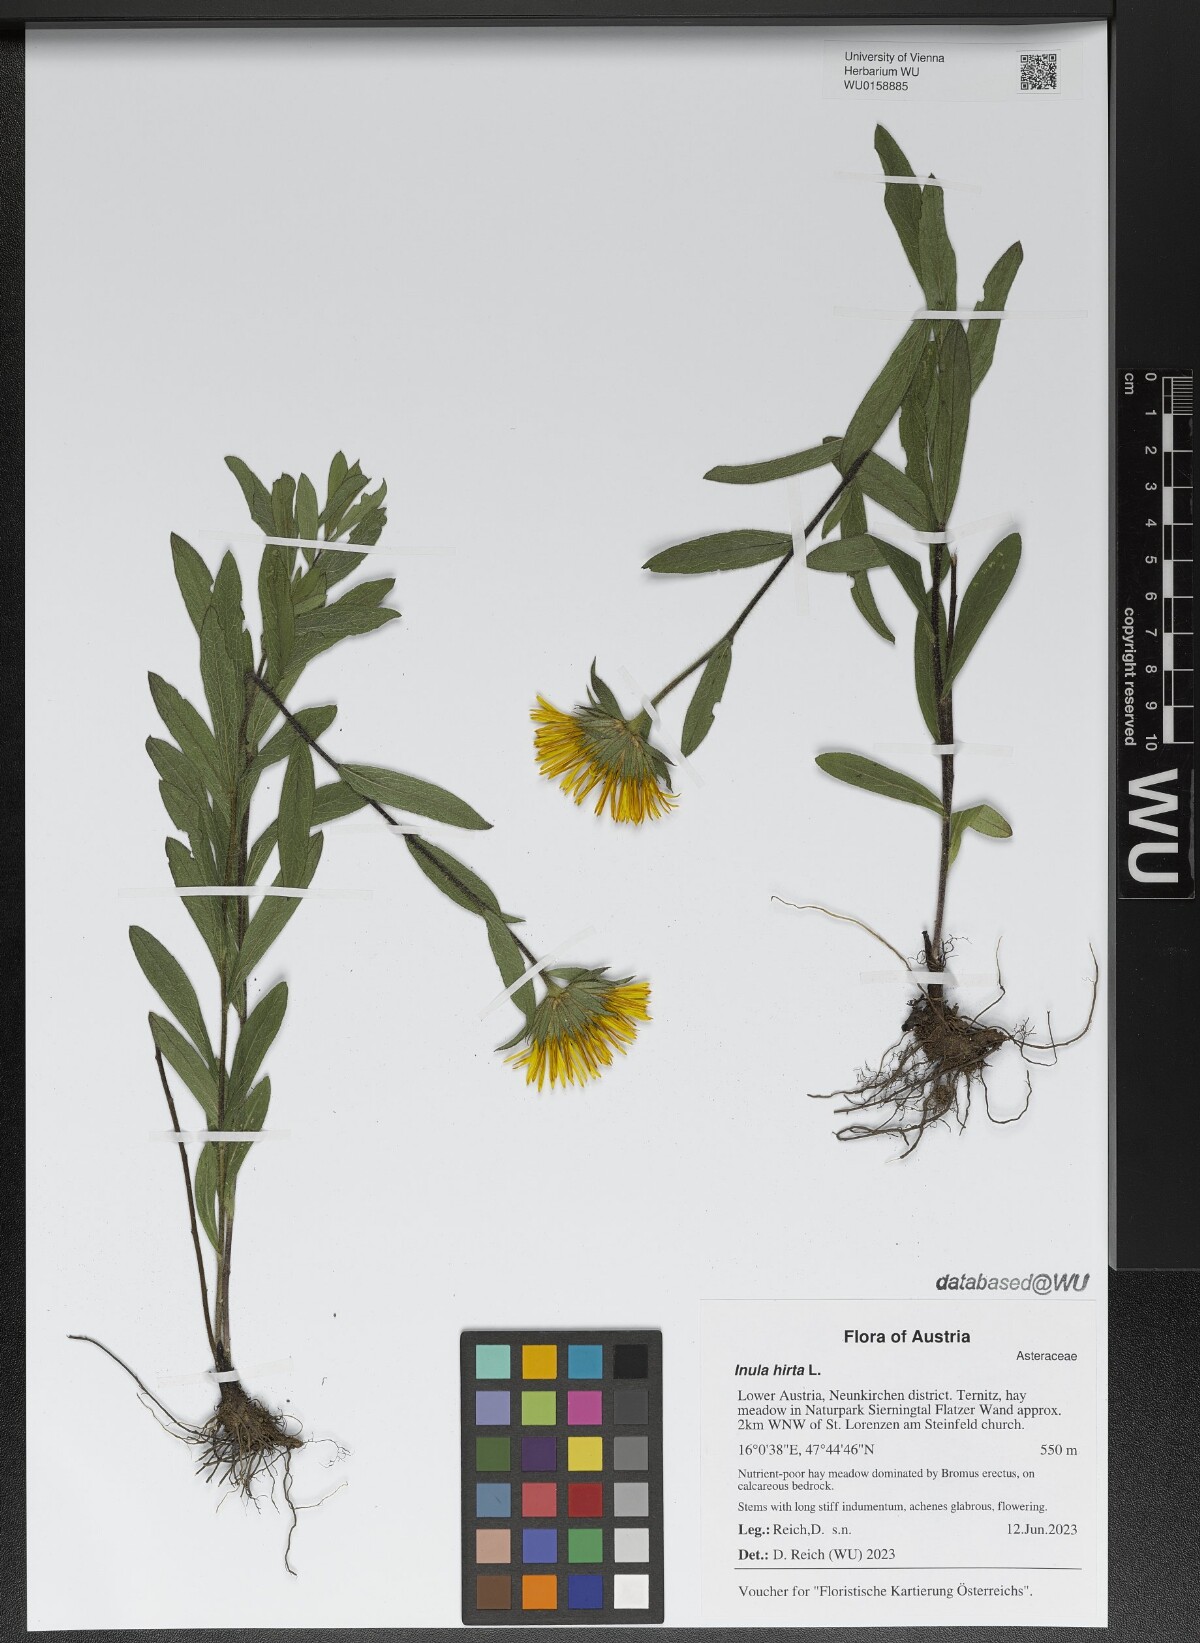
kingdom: Plantae
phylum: Tracheophyta
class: Magnoliopsida
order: Asterales
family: Asteraceae
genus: Pentanema
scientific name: Pentanema hirtum
